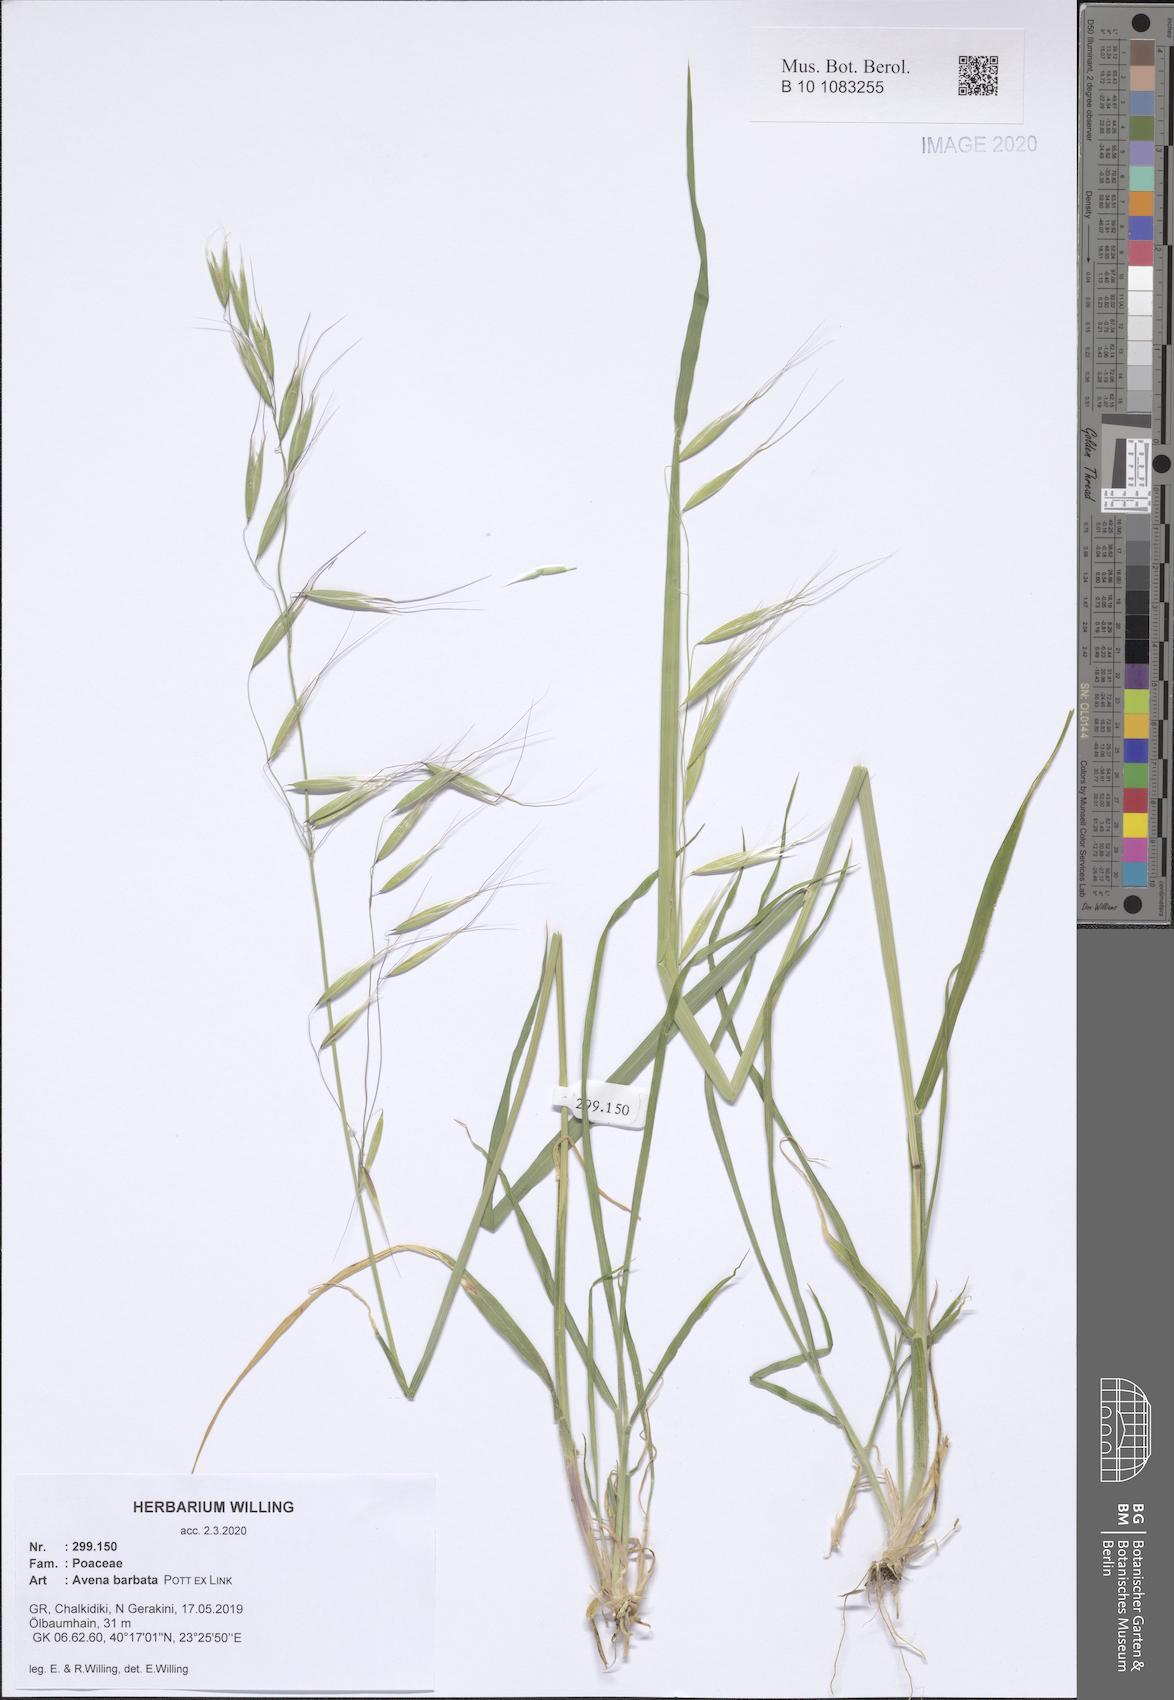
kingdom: Plantae
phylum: Tracheophyta
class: Liliopsida
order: Poales
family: Poaceae
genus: Avena
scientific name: Avena barbata
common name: Slender oat
